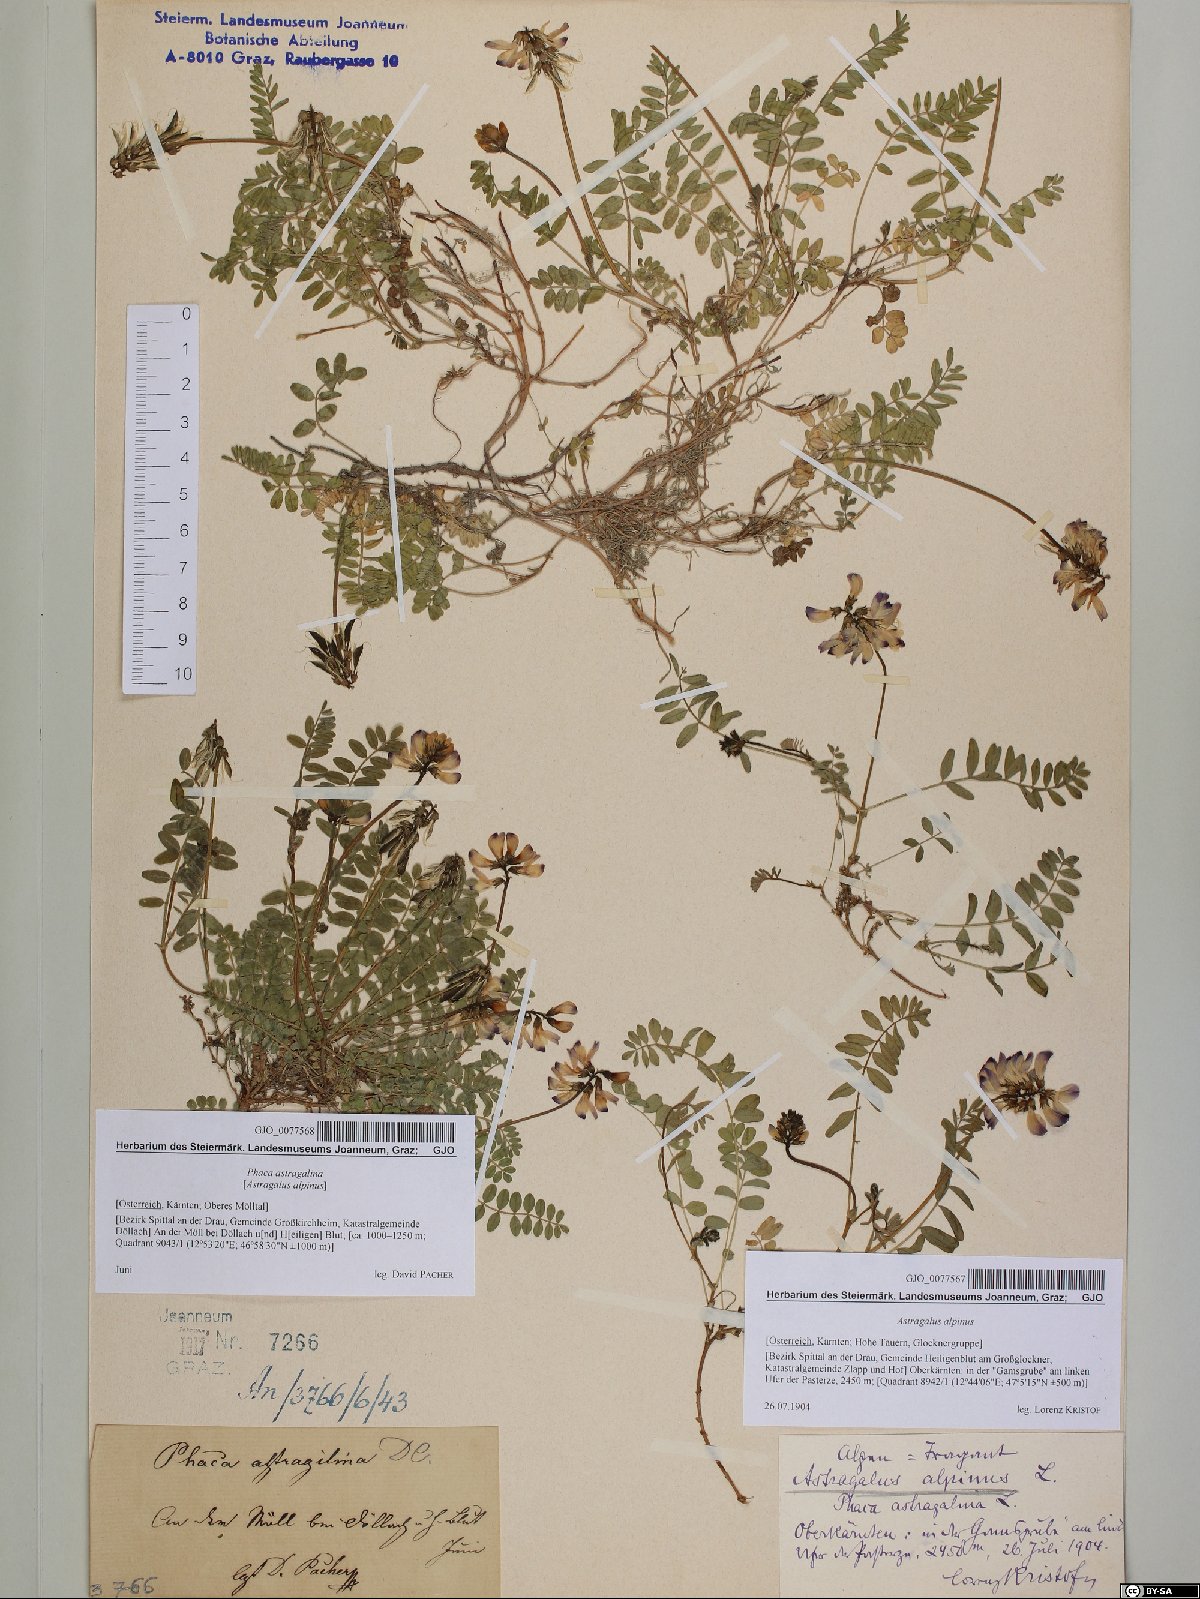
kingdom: Plantae
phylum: Tracheophyta
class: Magnoliopsida
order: Fabales
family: Fabaceae
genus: Astragalus
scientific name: Astragalus alpinus
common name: Alpine milk-vetch
